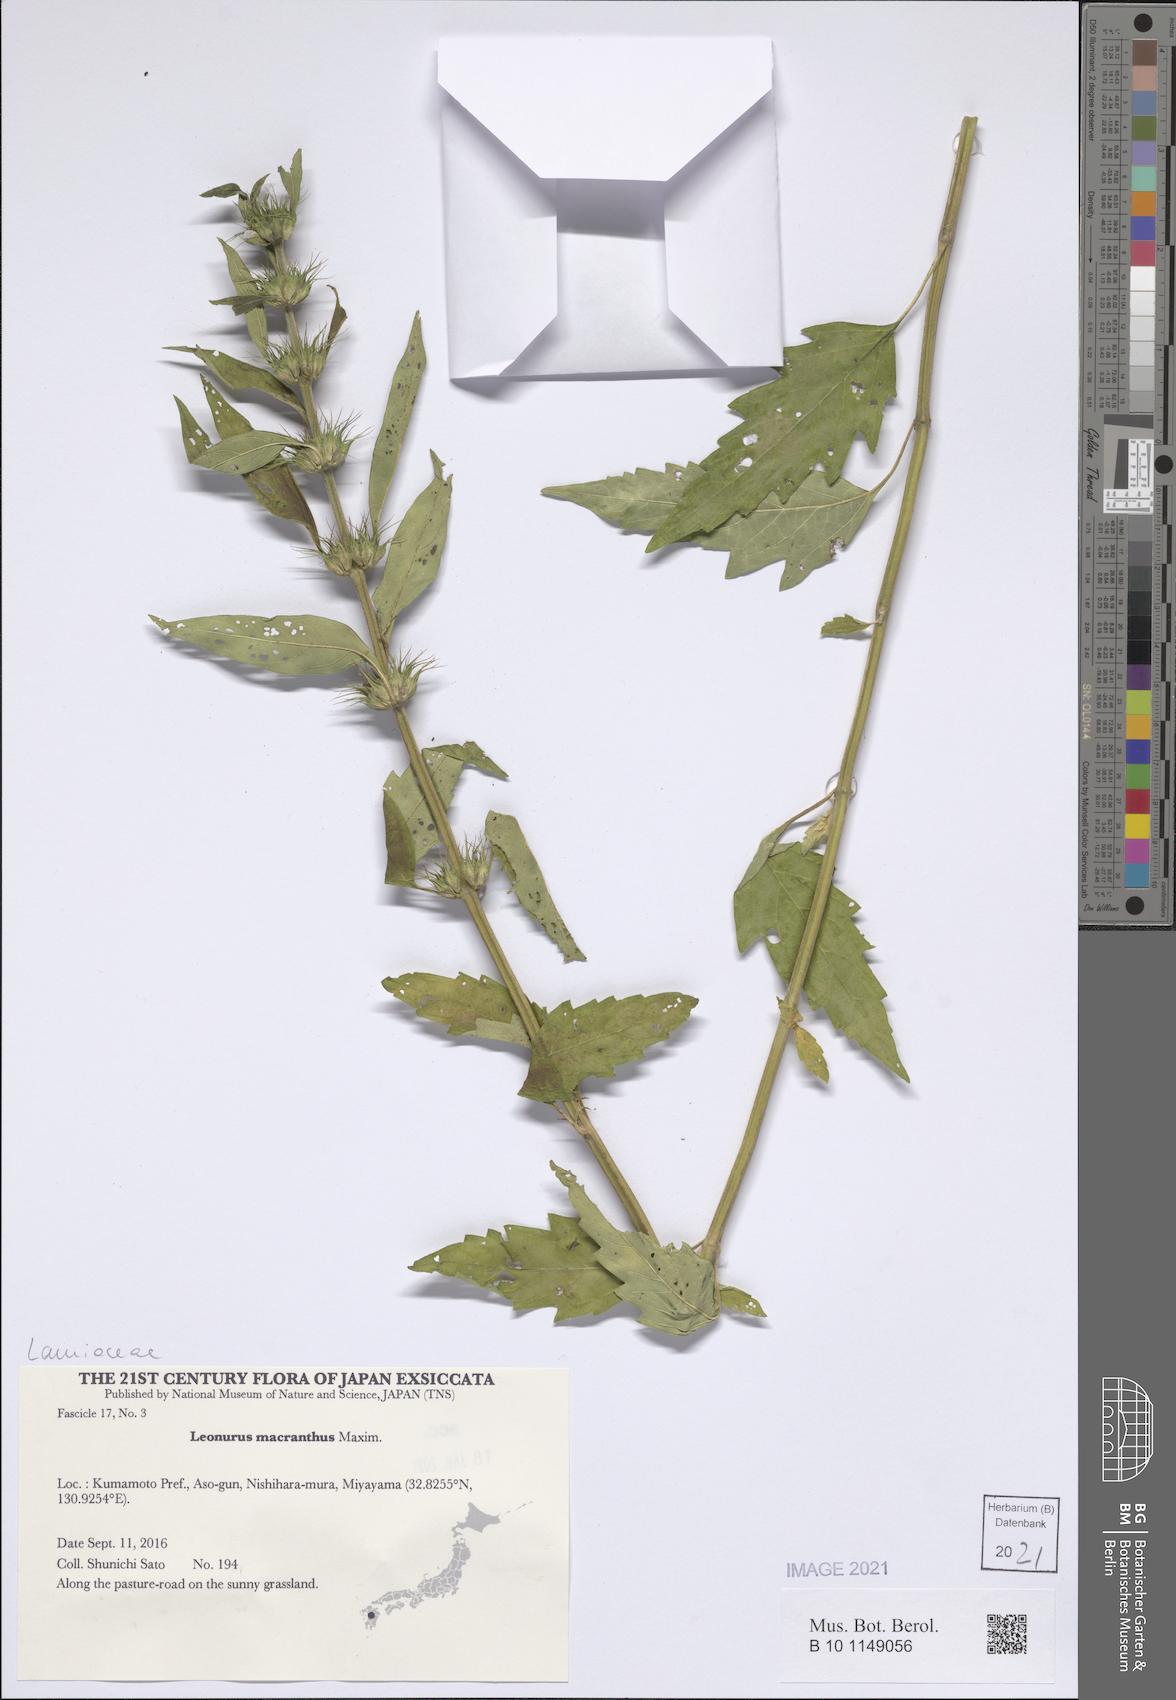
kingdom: Plantae
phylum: Tracheophyta
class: Magnoliopsida
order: Lamiales
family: Lamiaceae
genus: Leonurus
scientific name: Leonurus macranthus
